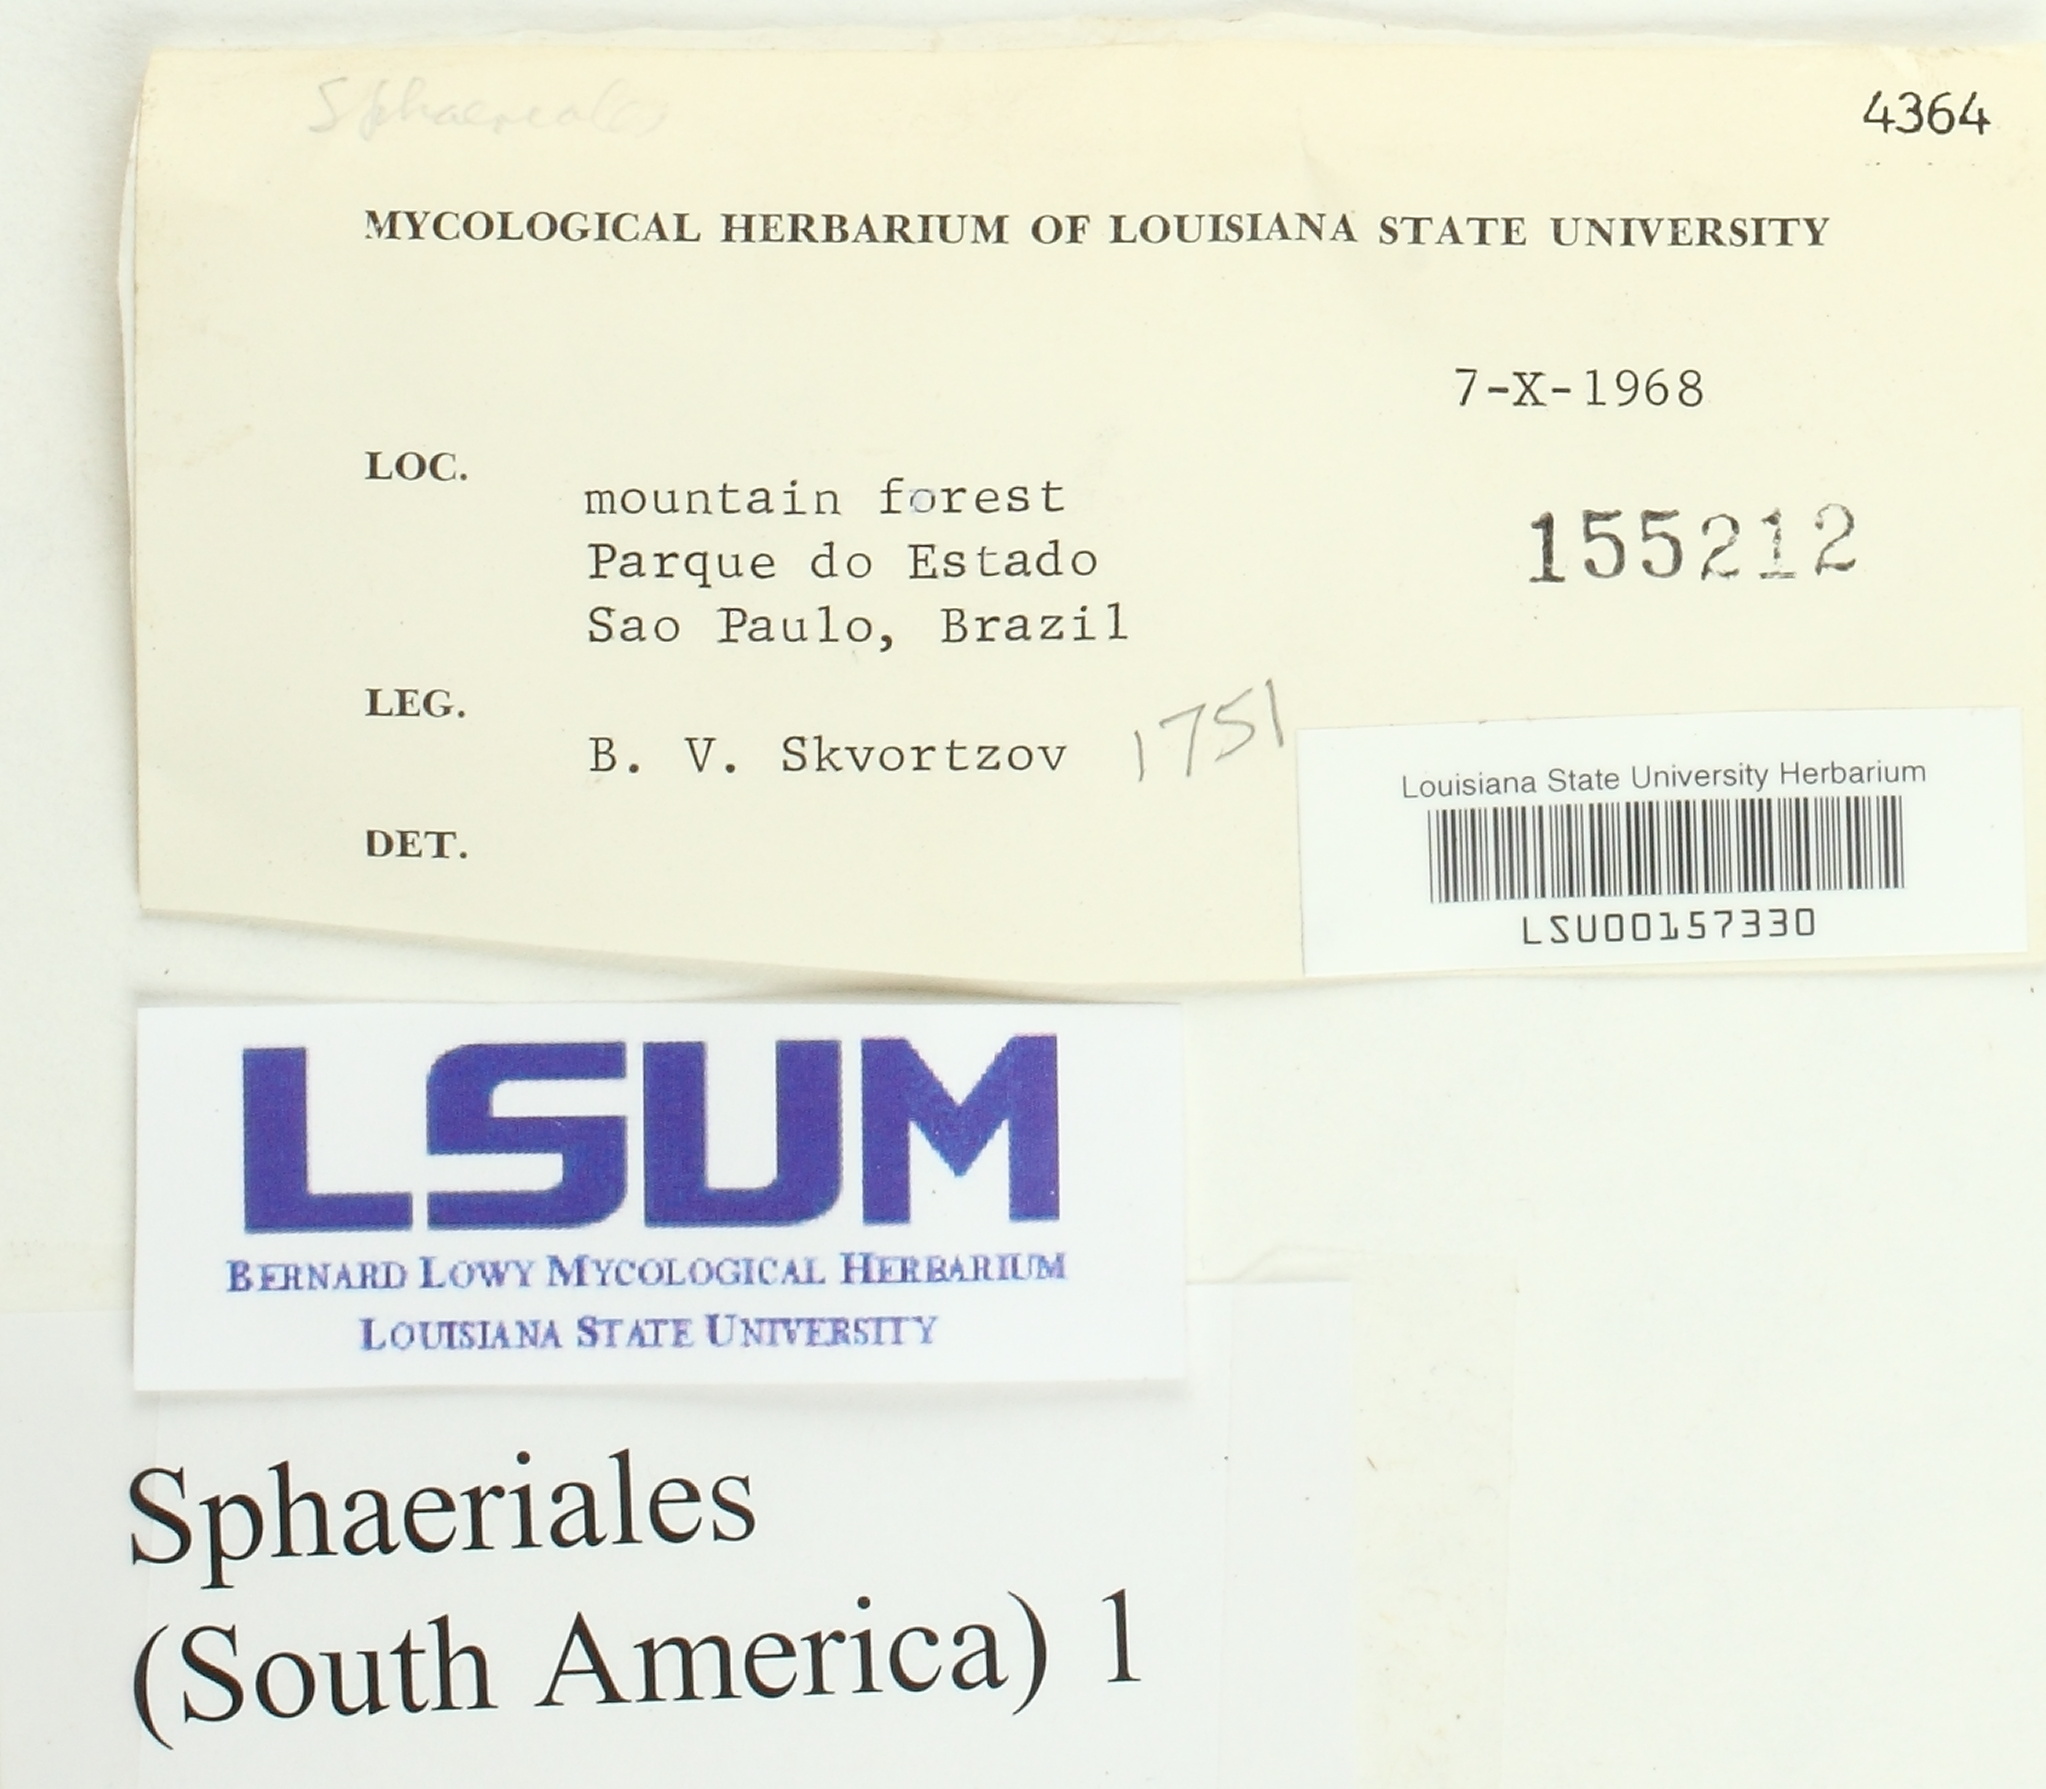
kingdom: Fungi
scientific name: Fungi
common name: Fungi
